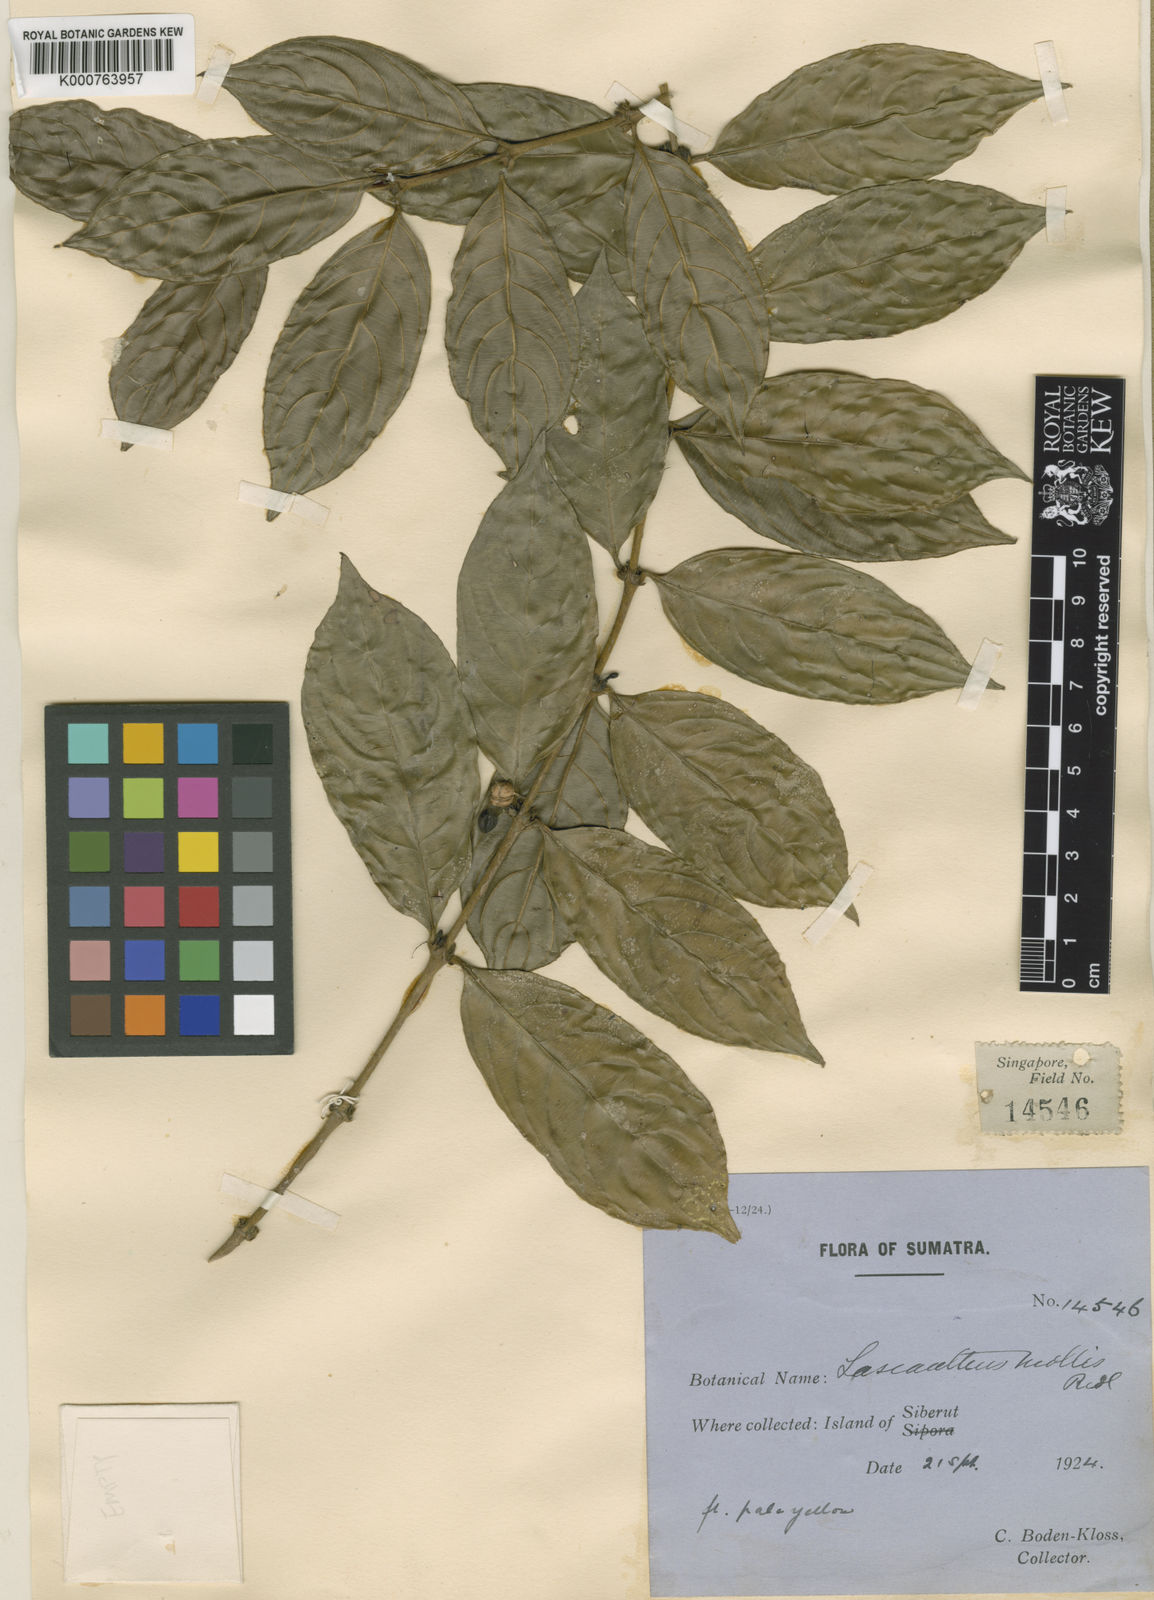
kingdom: Plantae
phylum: Tracheophyta
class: Magnoliopsida
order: Gentianales
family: Rubiaceae
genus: Lasianthus
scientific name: Lasianthus mollis
